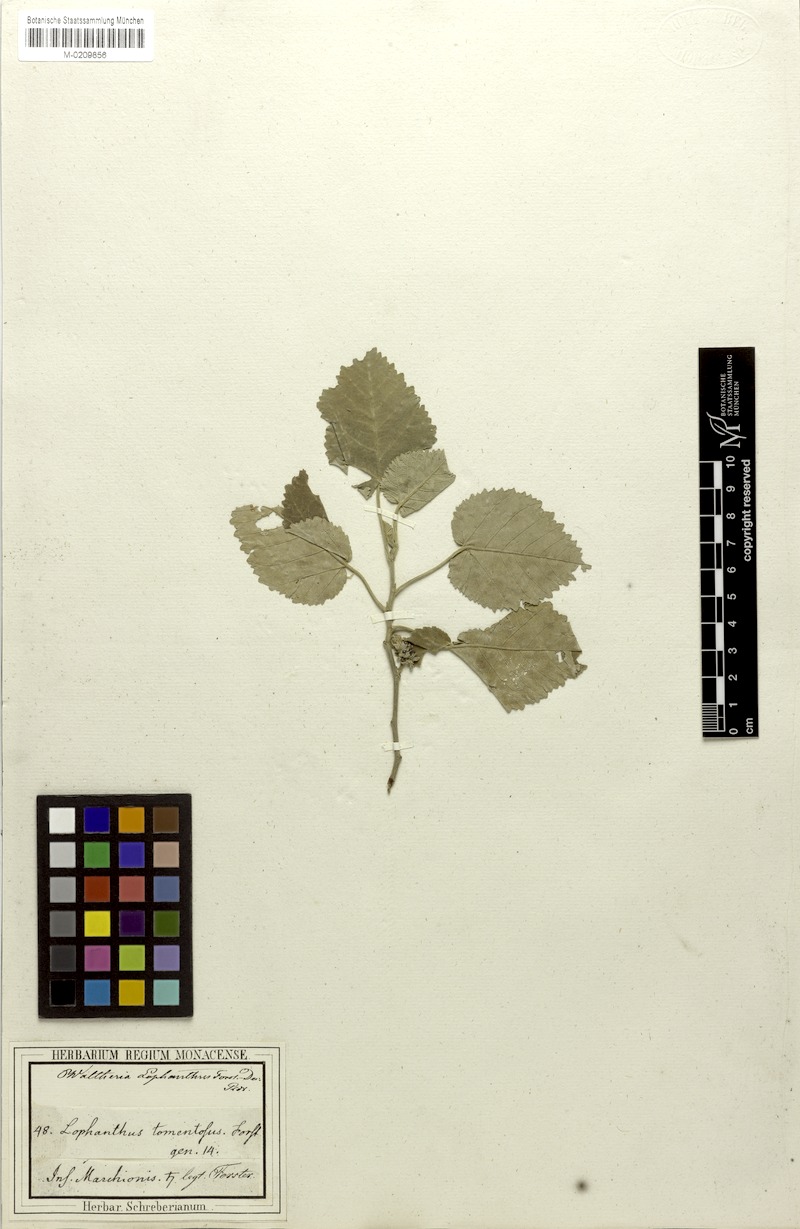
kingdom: Plantae
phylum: Tracheophyta
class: Magnoliopsida
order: Malvales
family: Malvaceae
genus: Waltheria
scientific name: Waltheria tomentosa
